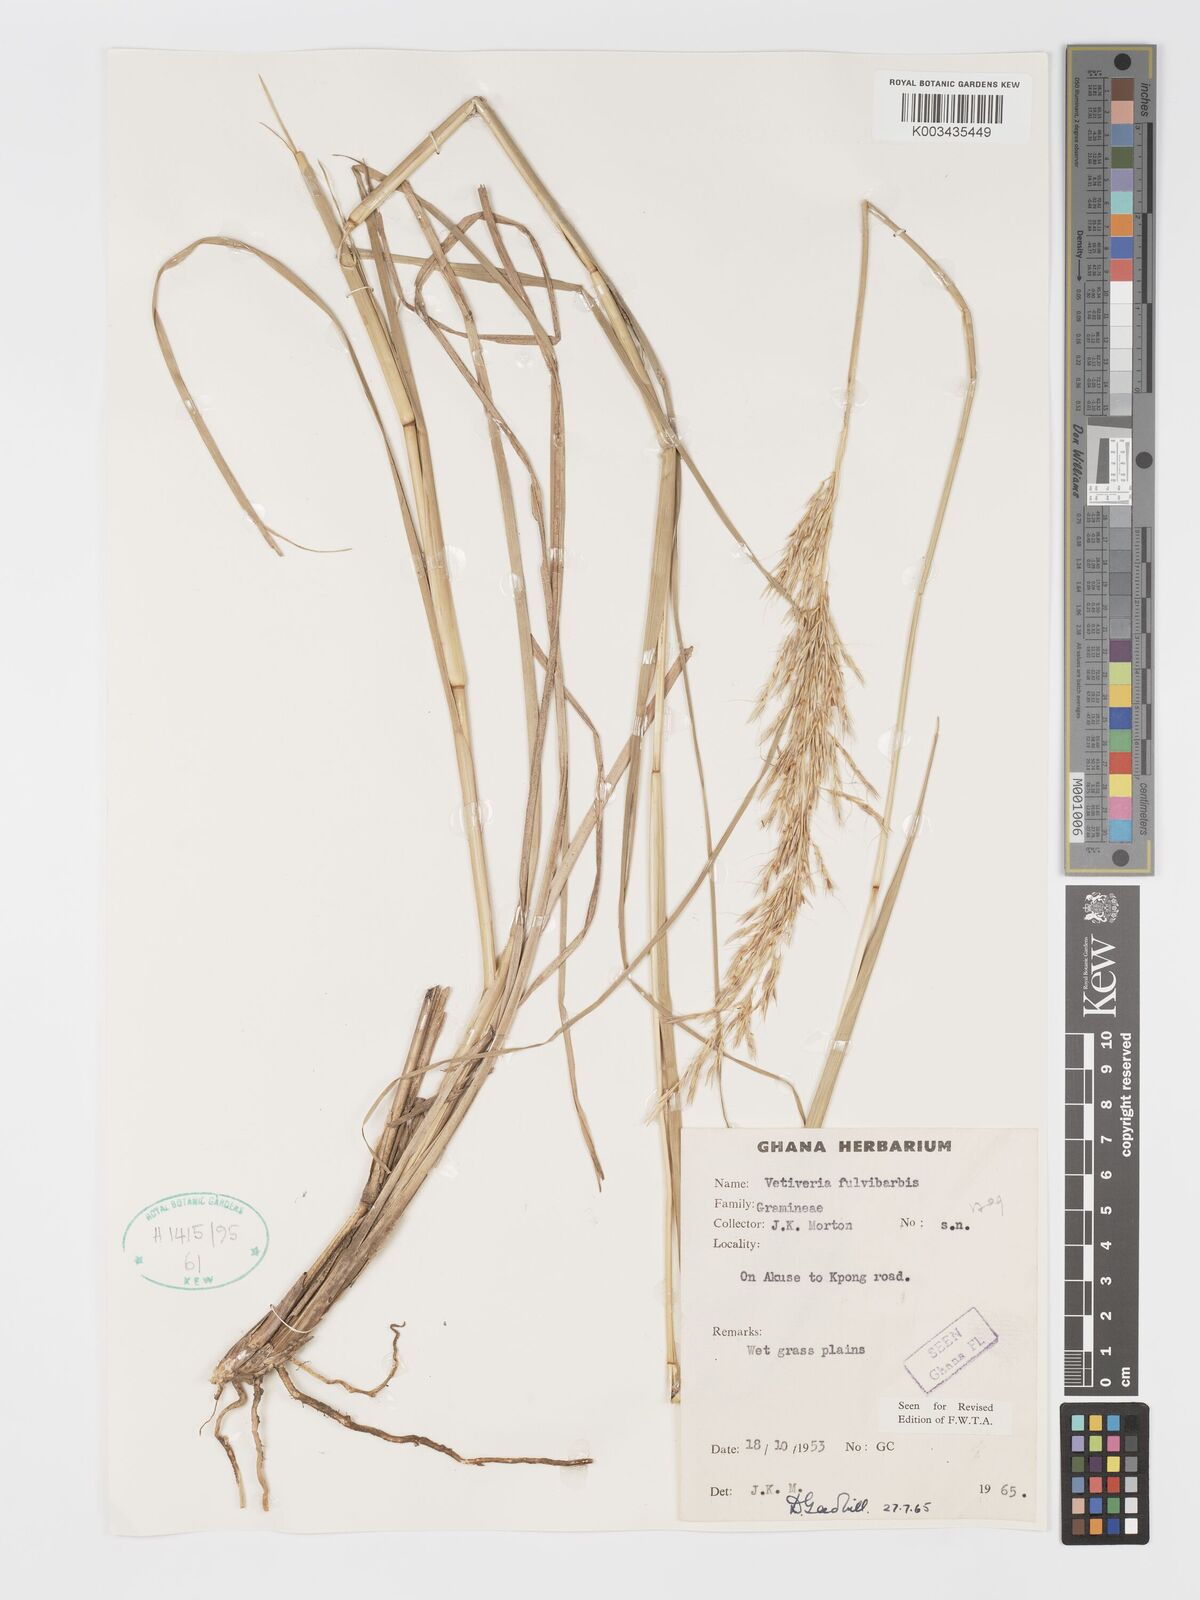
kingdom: Plantae
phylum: Tracheophyta
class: Liliopsida
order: Poales
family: Poaceae
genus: Chrysopogon
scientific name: Chrysopogon fulvibarbis
